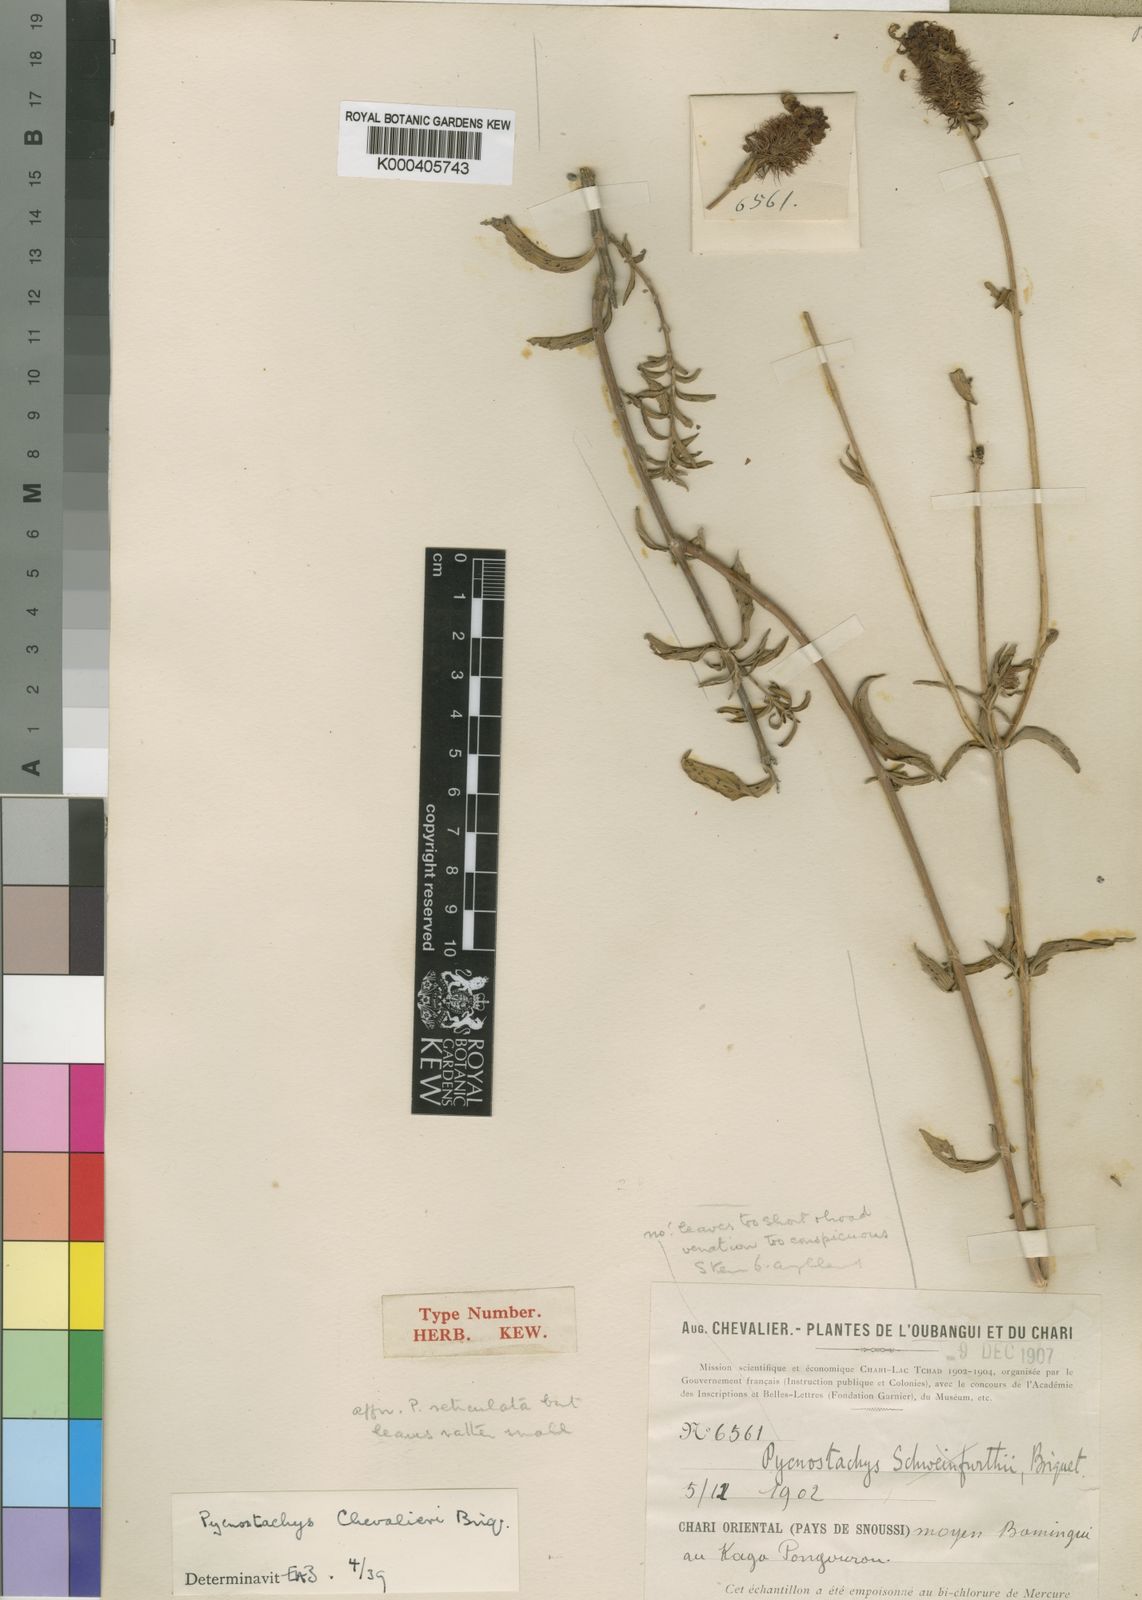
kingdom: Plantae
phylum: Tracheophyta
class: Magnoliopsida
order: Lamiales
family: Lamiaceae
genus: Coleus
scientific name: Coleus centraliafricanus
